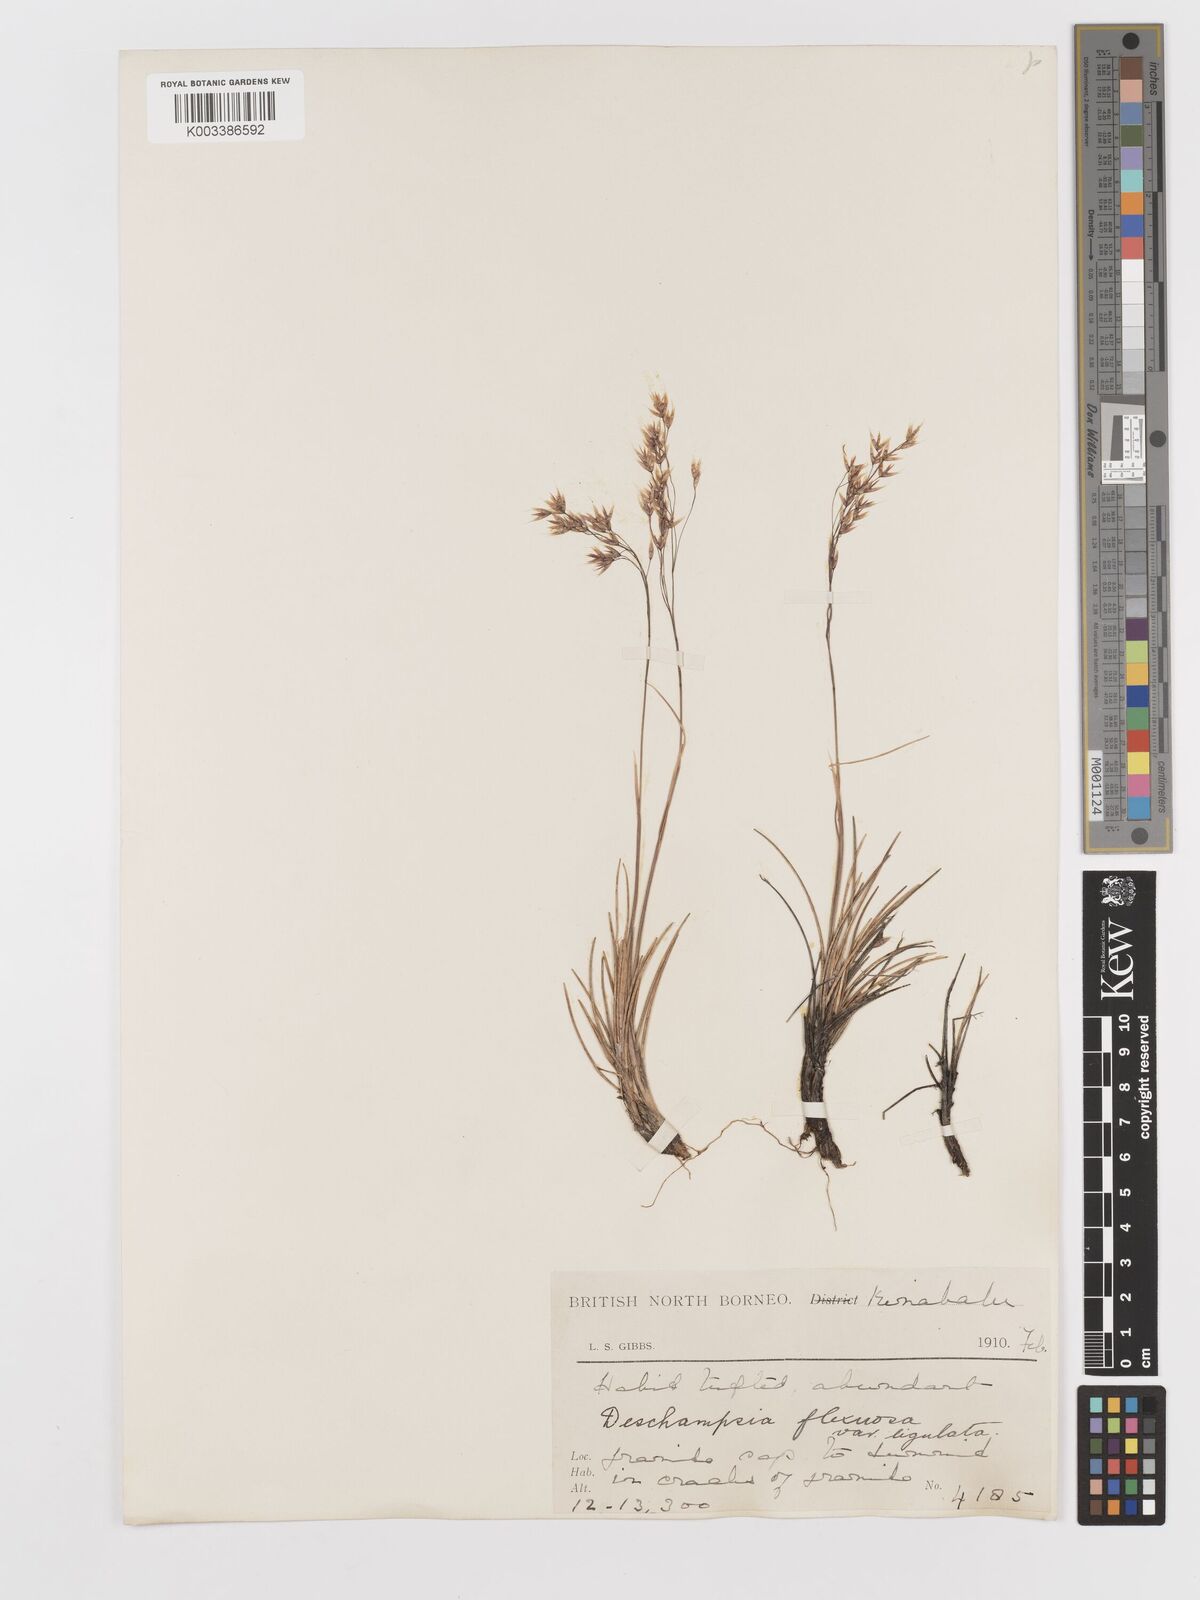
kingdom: Plantae
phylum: Tracheophyta
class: Liliopsida
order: Poales
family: Poaceae
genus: Avenella
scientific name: Avenella flexuosa
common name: Wavy hairgrass
